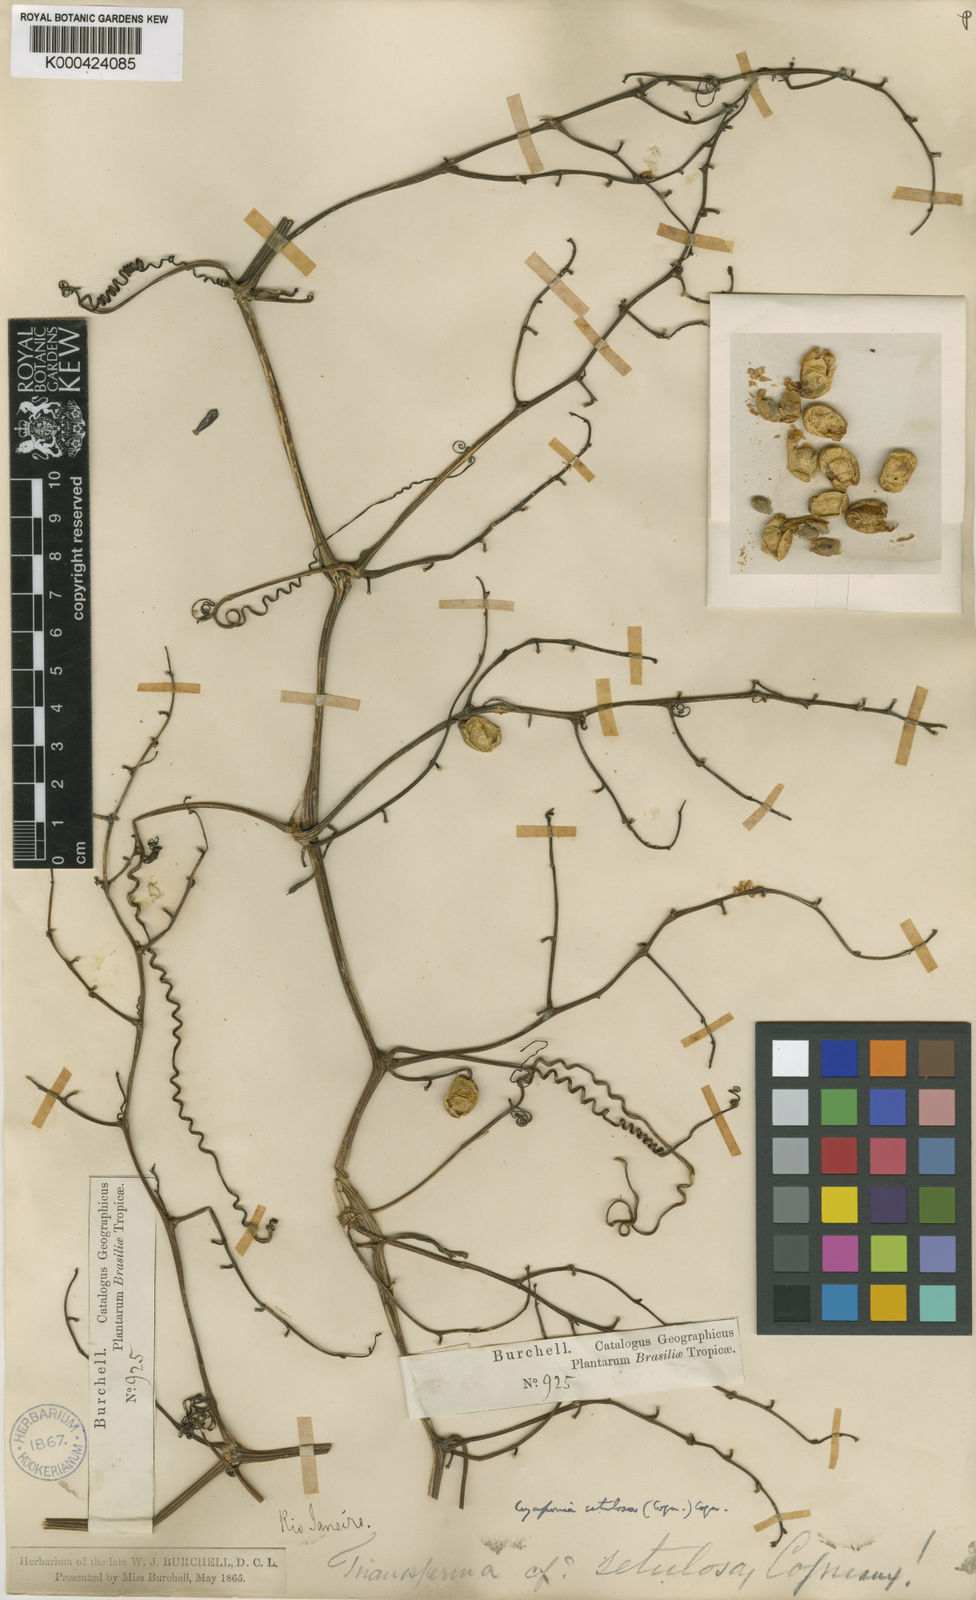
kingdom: Plantae
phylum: Tracheophyta
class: Magnoliopsida
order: Cucurbitales
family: Cucurbitaceae
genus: Cayaponia
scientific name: Cayaponia setulosa
